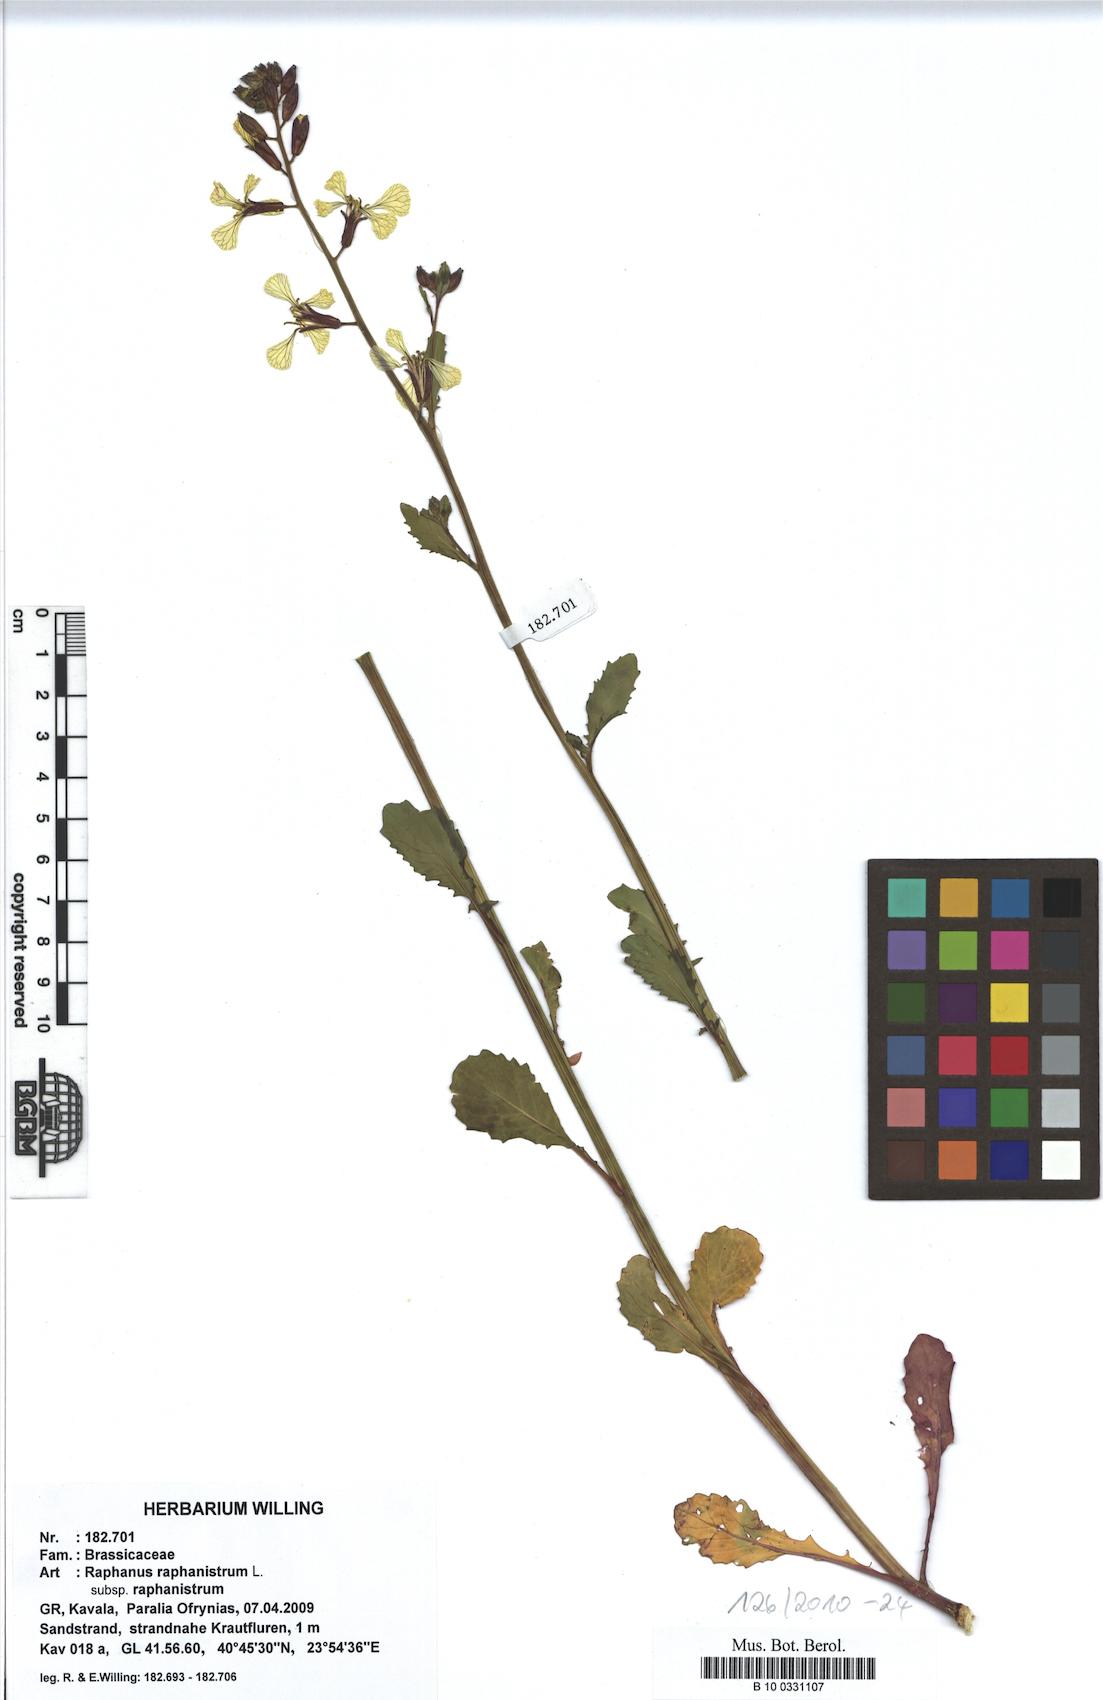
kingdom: Plantae
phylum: Tracheophyta
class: Magnoliopsida
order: Brassicales
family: Brassicaceae
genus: Raphanus
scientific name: Raphanus raphanistrum
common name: Wild radish
